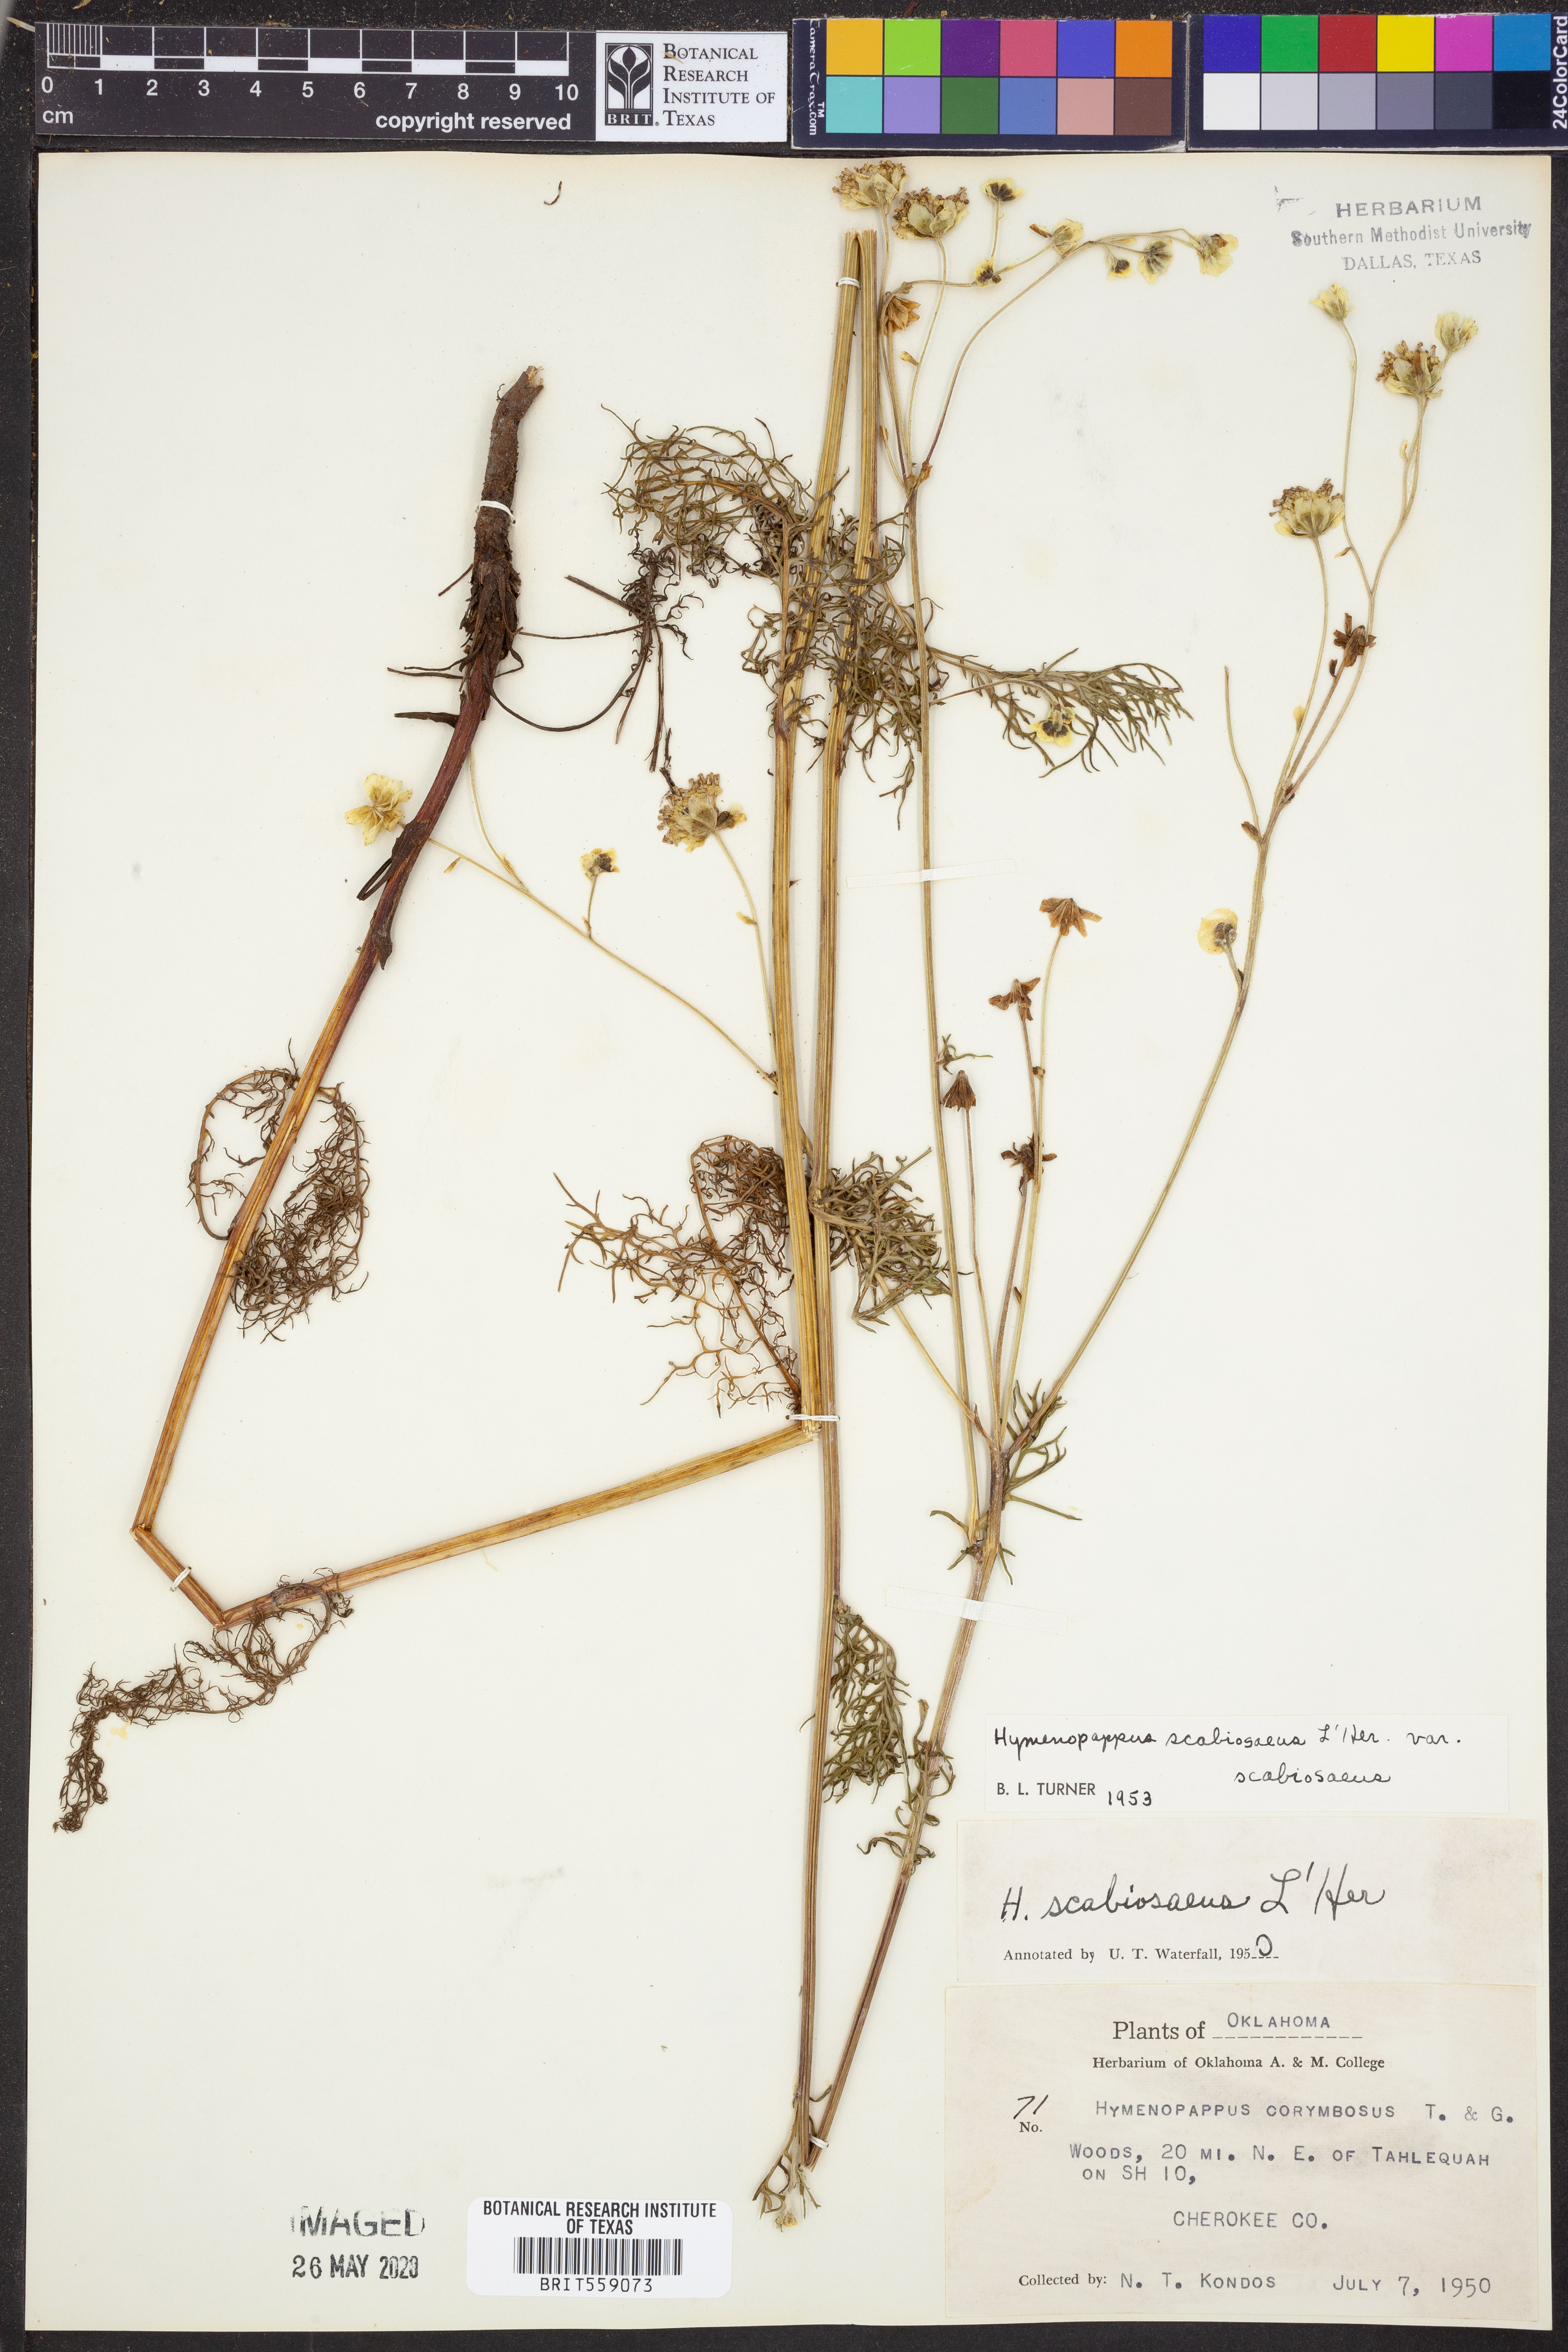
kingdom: Plantae
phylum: Tracheophyta
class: Magnoliopsida
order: Asterales
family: Asteraceae
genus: Hymenopappus
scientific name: Hymenopappus scabiosaeus
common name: Carolina woollywhite
